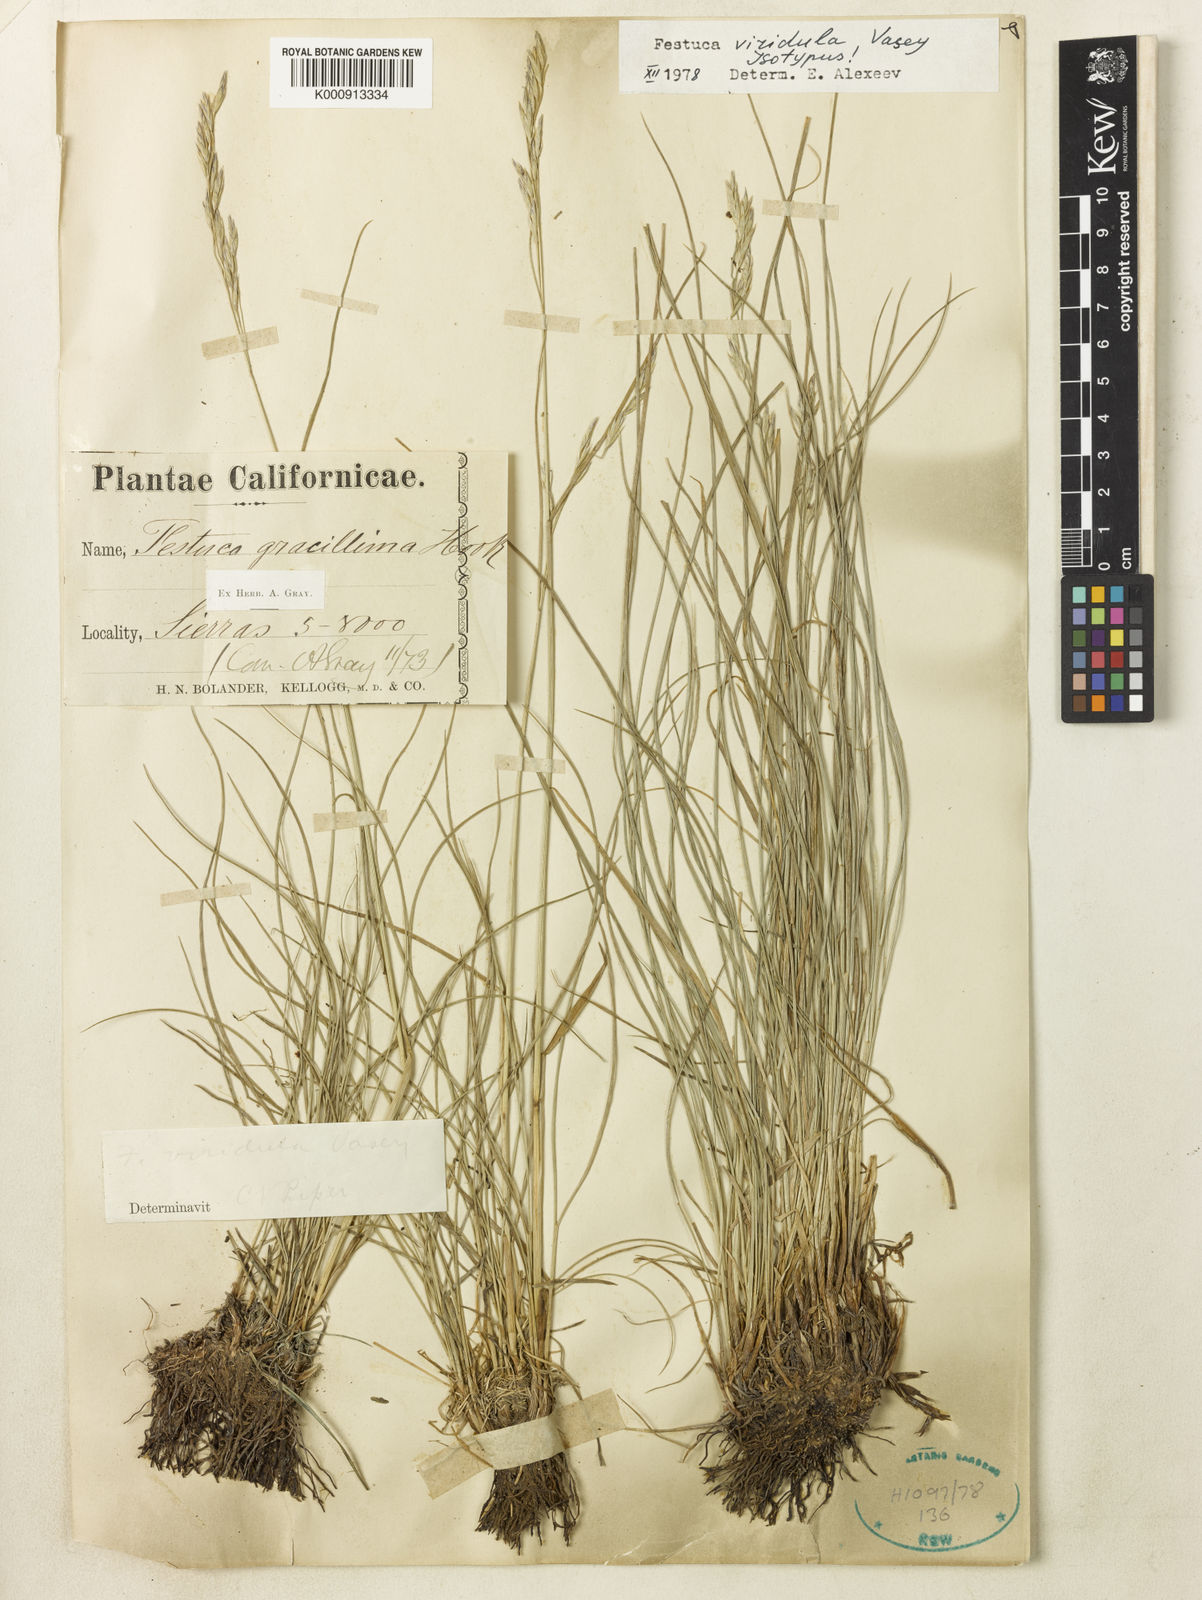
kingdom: Plantae
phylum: Tracheophyta
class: Liliopsida
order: Poales
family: Poaceae
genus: Festuca
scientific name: Festuca viridula
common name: Mountain bunchgrass
